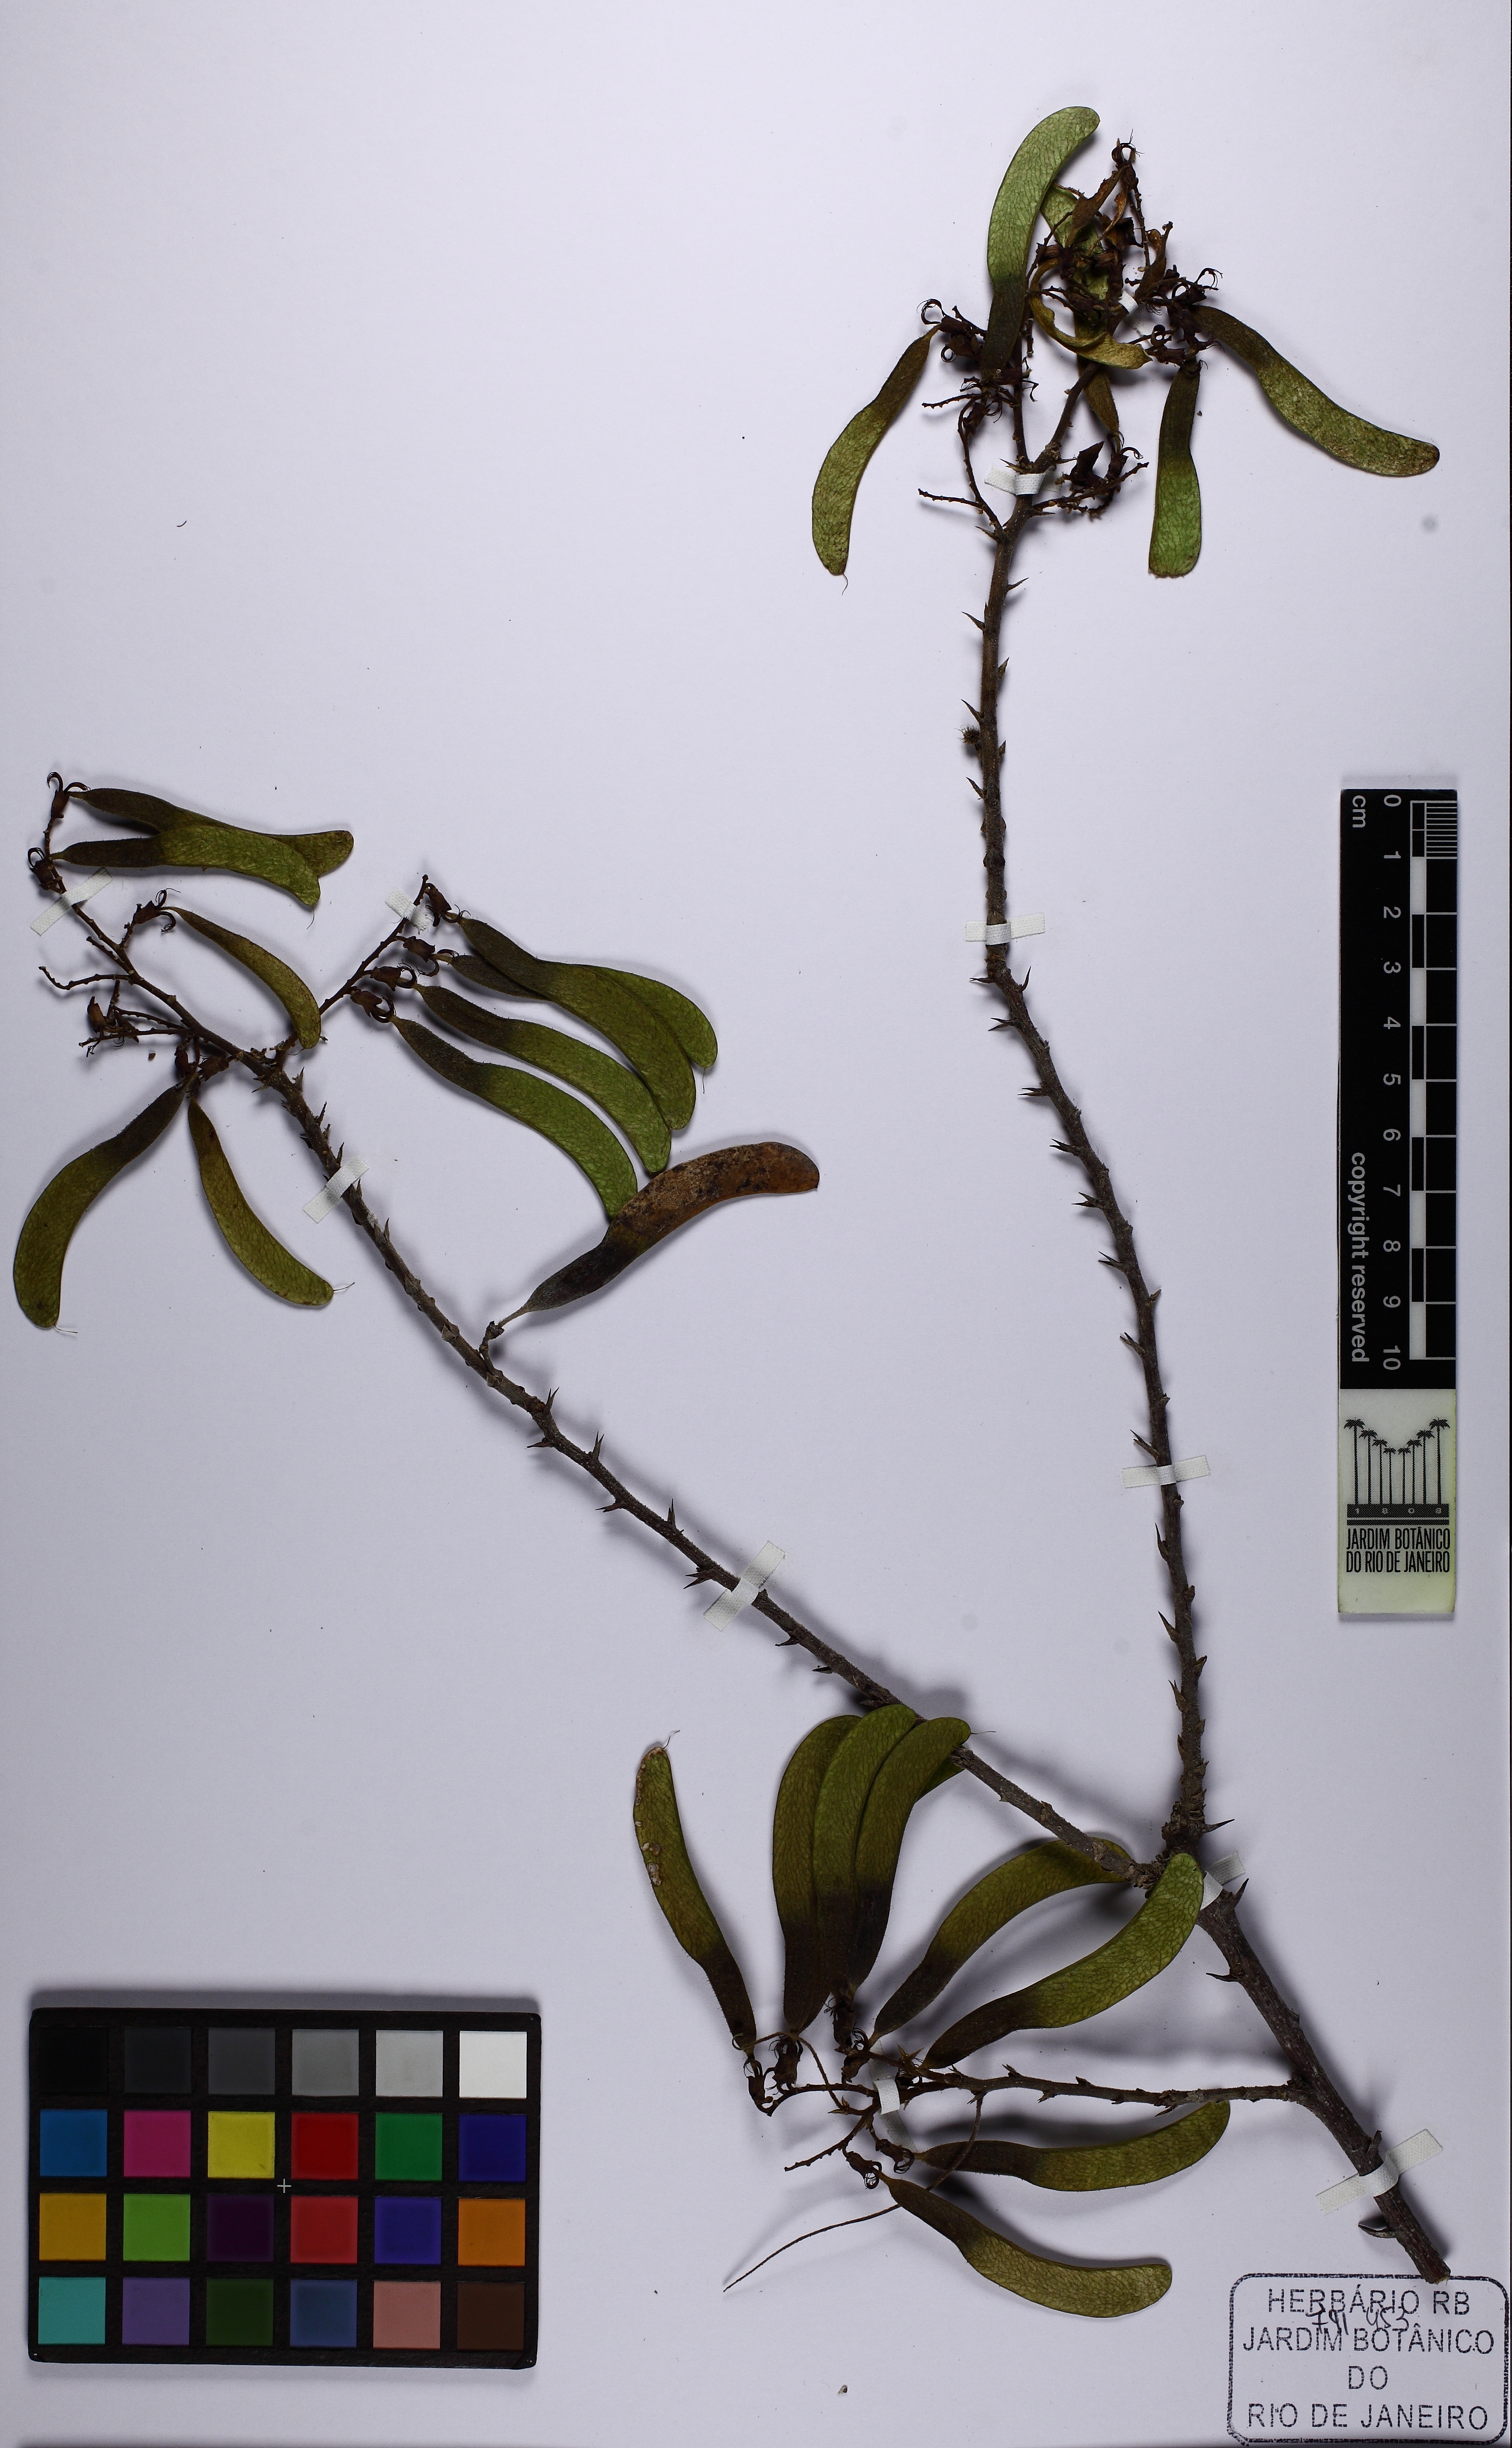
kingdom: Plantae
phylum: Tracheophyta
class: Magnoliopsida
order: Fabales
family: Fabaceae
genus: Machaerium
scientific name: Machaerium hirtum
